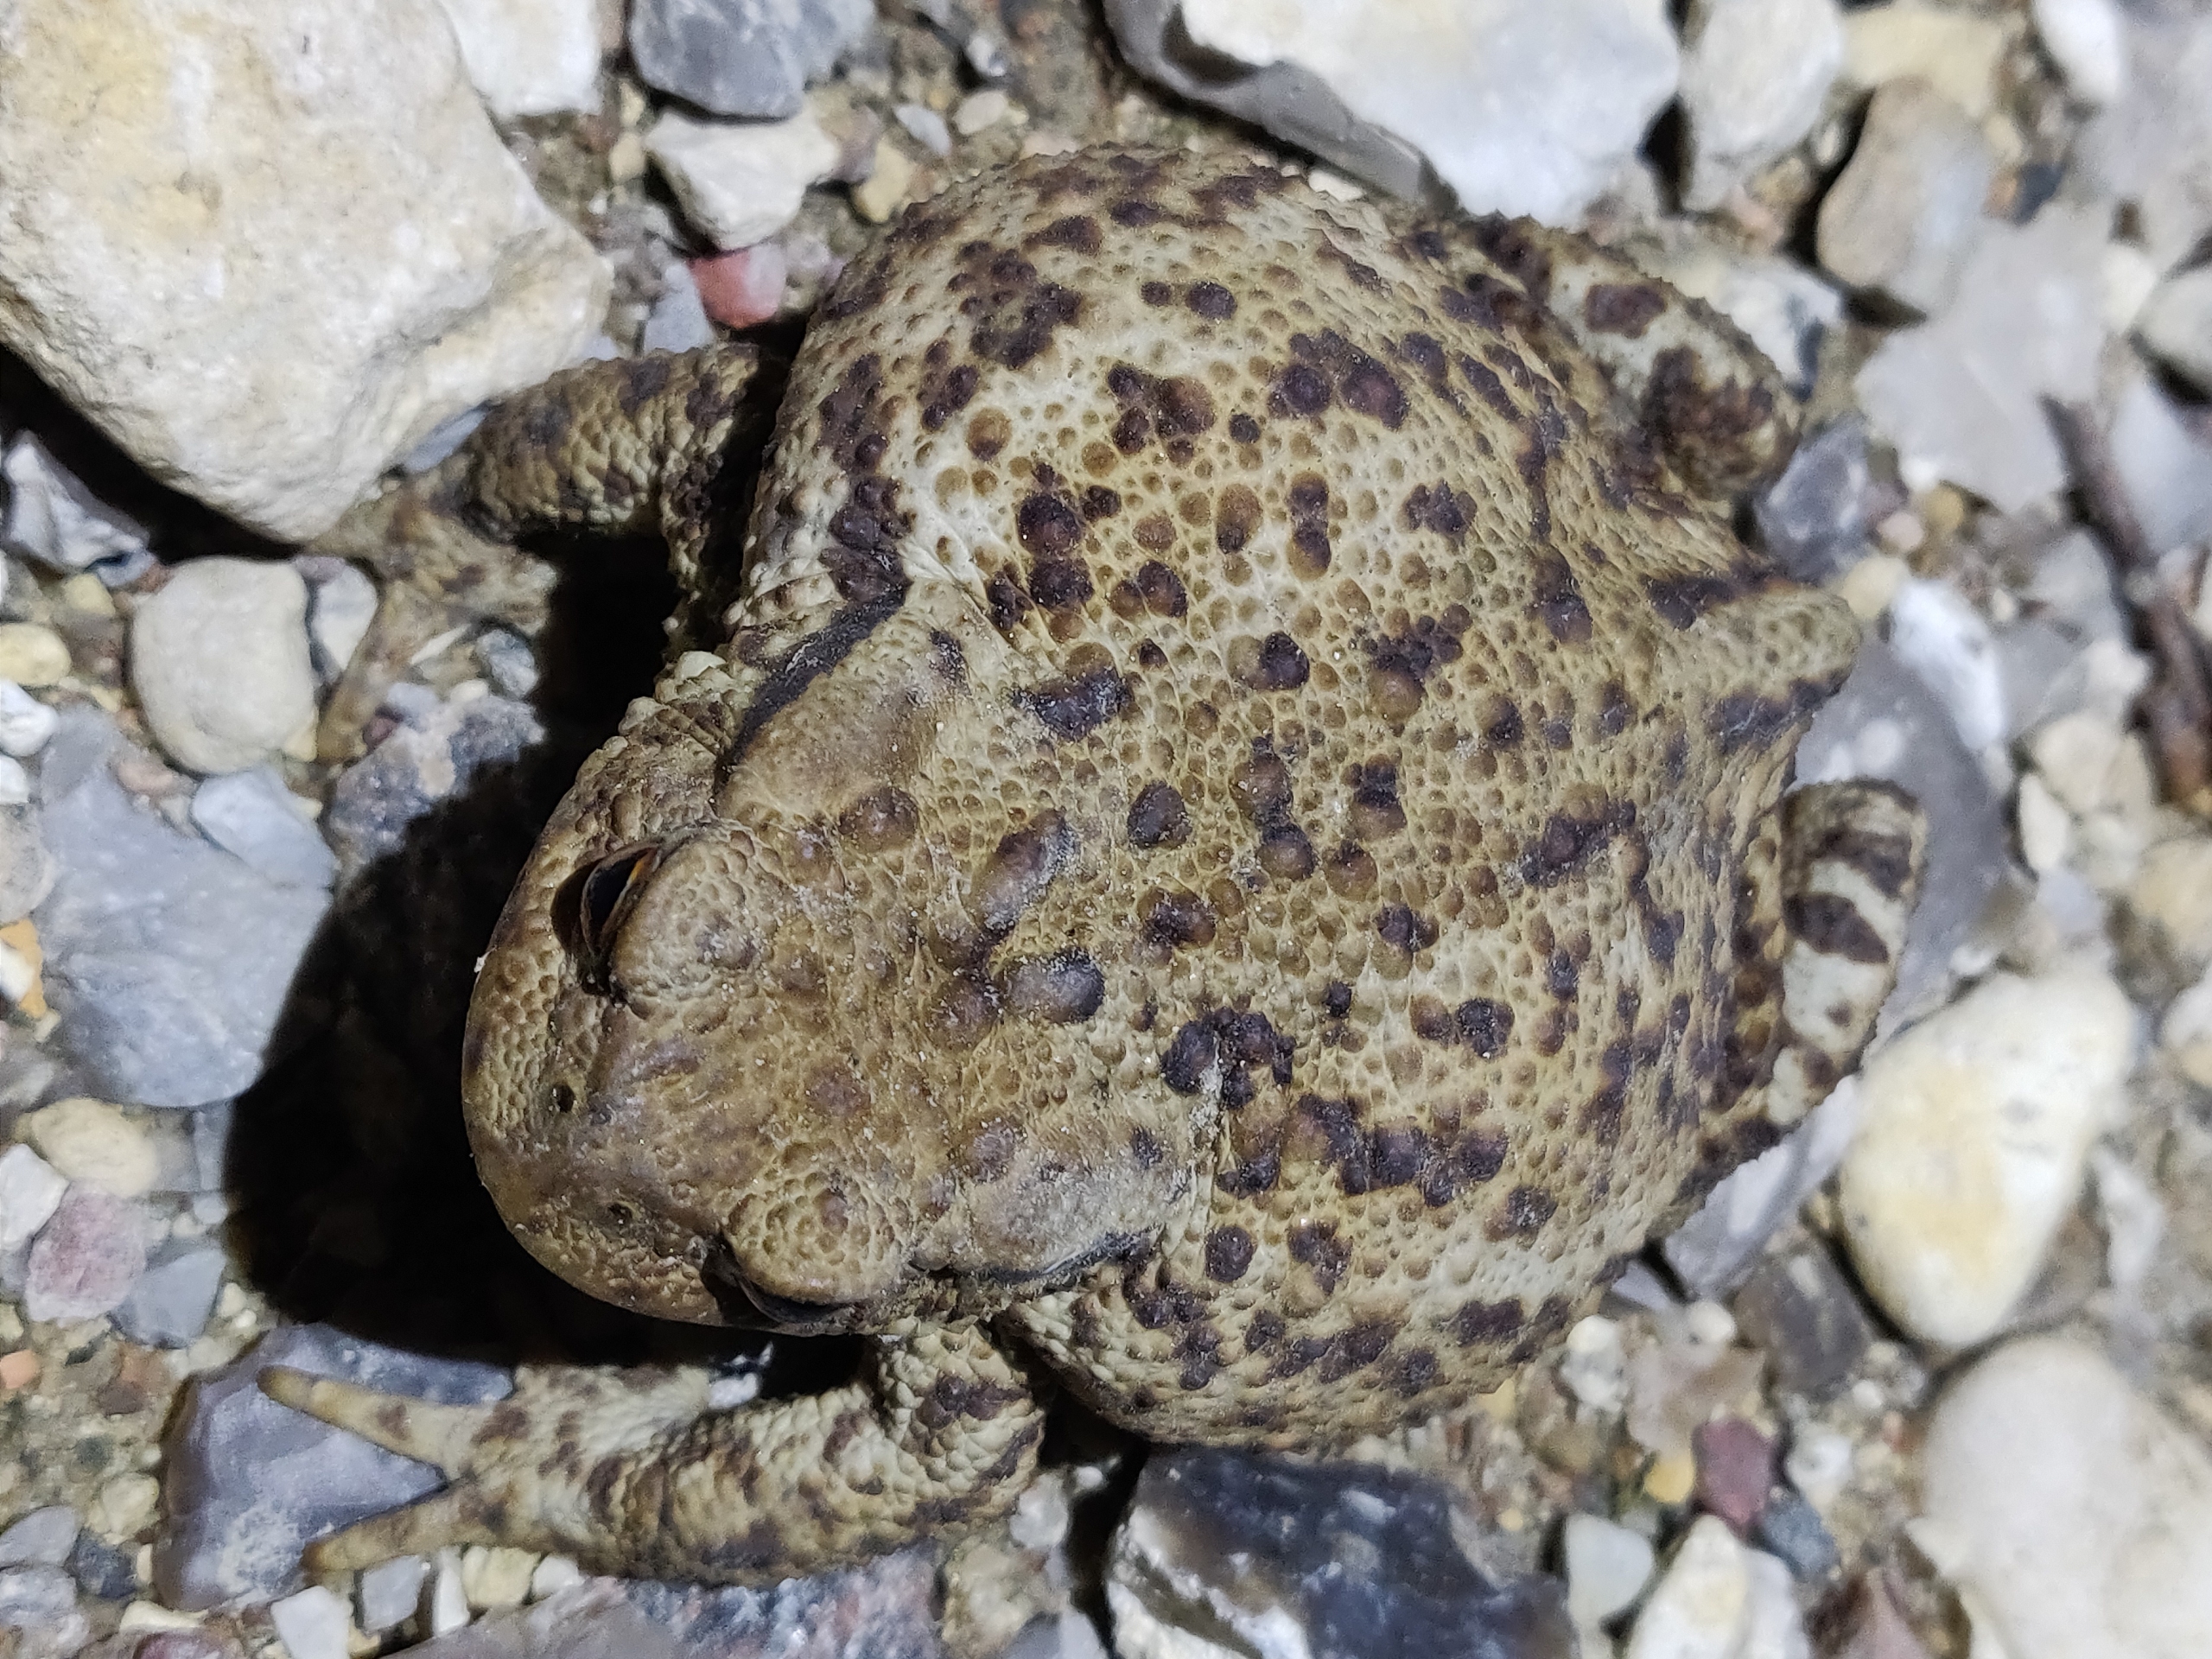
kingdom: Animalia
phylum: Chordata
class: Amphibia
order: Anura
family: Bufonidae
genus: Bufo
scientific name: Bufo bufo
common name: Skrubtudse
